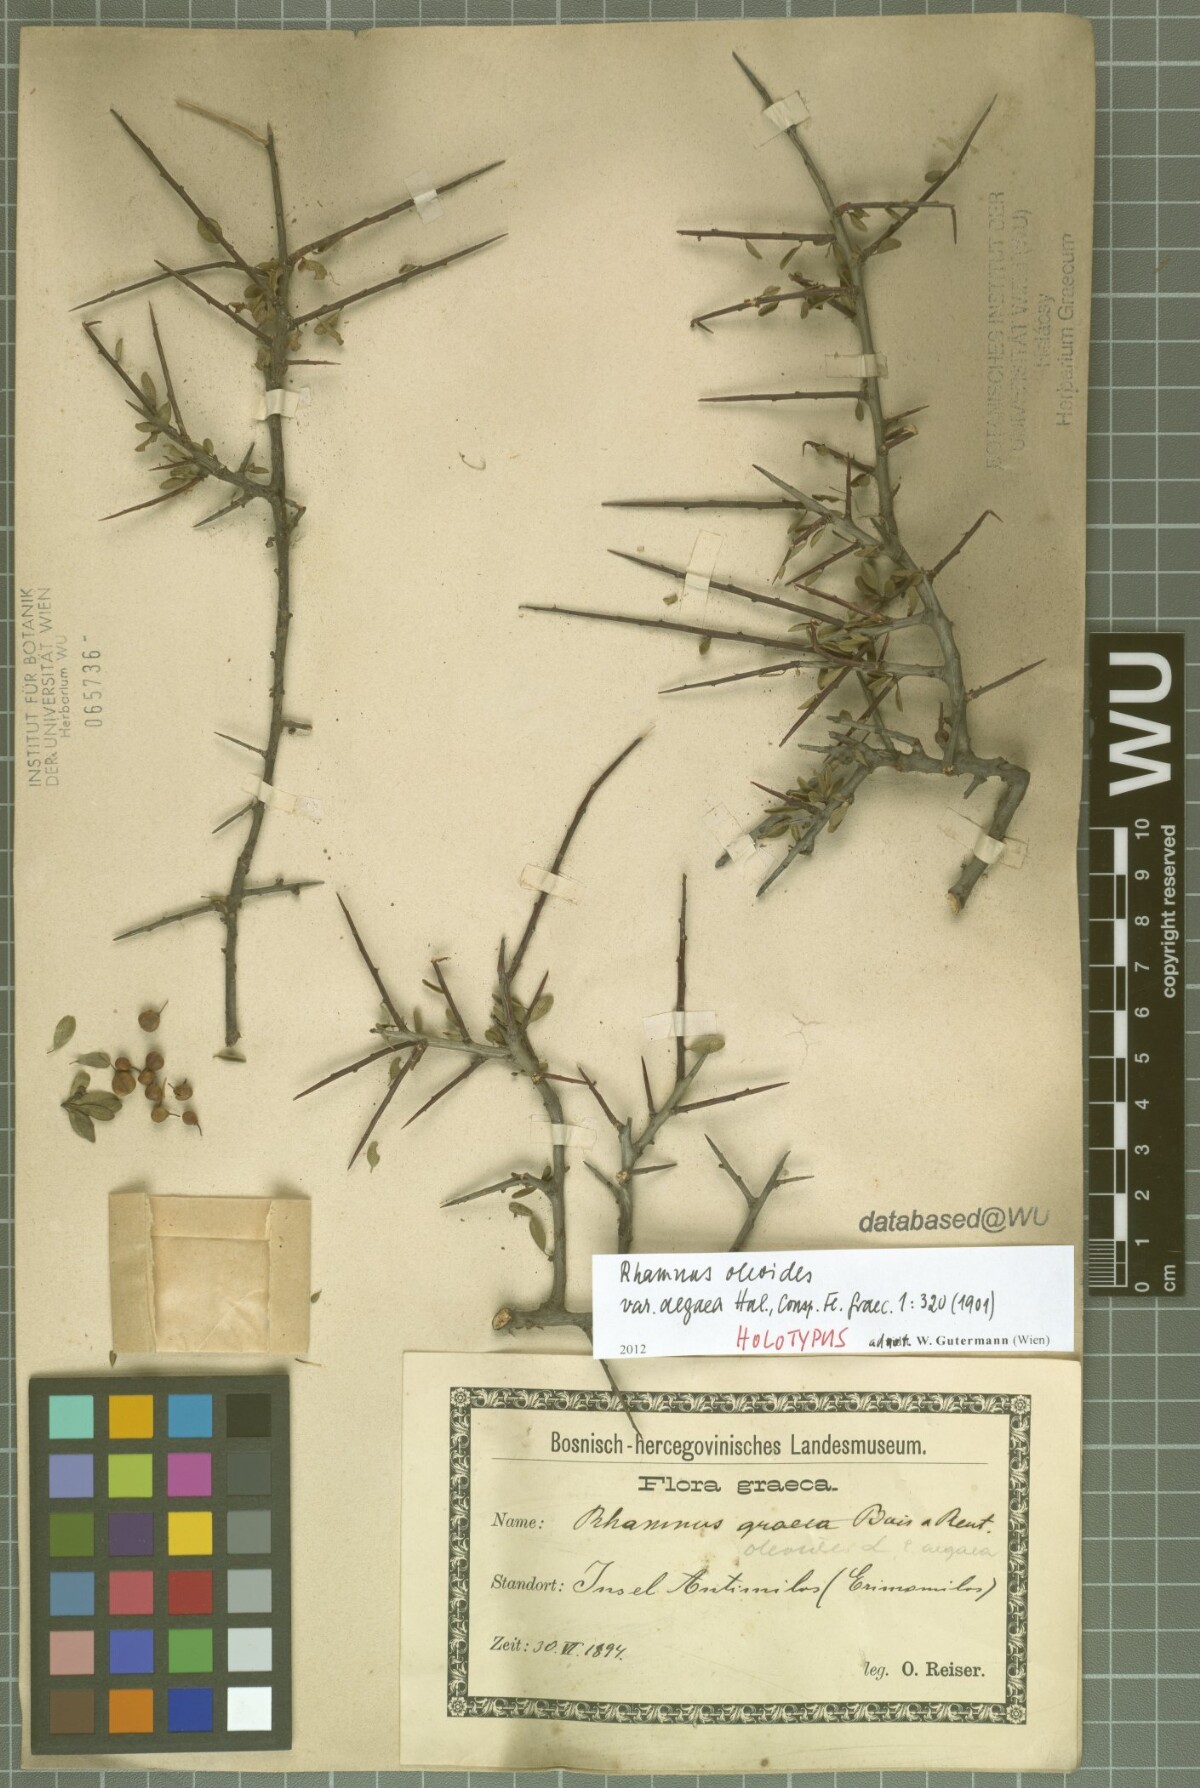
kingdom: Plantae
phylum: Tracheophyta
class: Magnoliopsida
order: Rosales
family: Rhamnaceae
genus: Rhamnus
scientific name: Rhamnus oleoides
